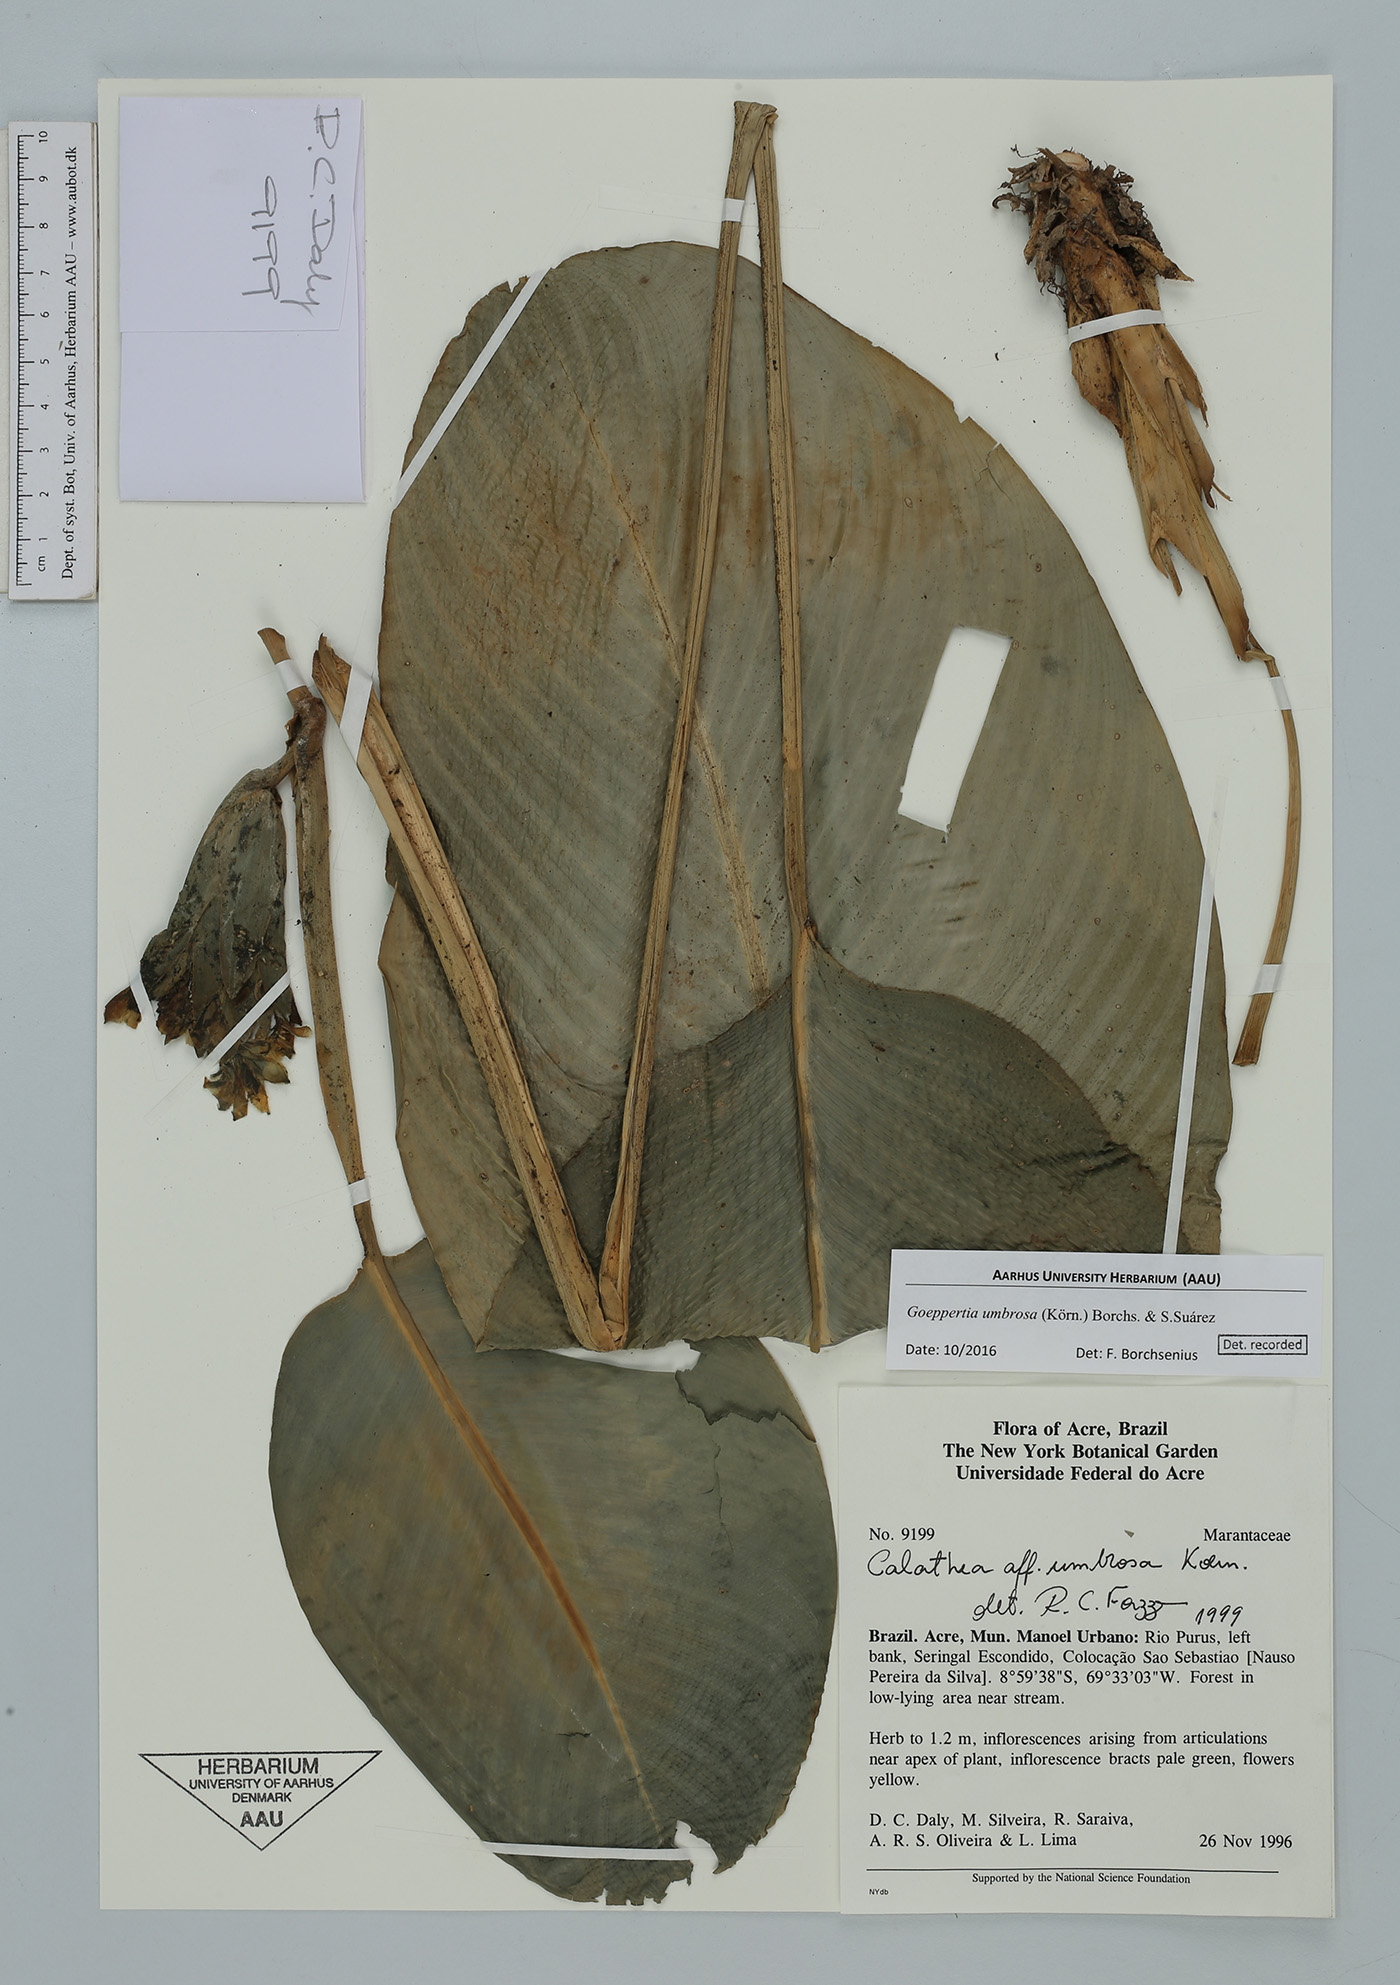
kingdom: Plantae
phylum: Tracheophyta
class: Liliopsida
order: Zingiberales
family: Marantaceae
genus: Goeppertia
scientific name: Goeppertia umbrosa
